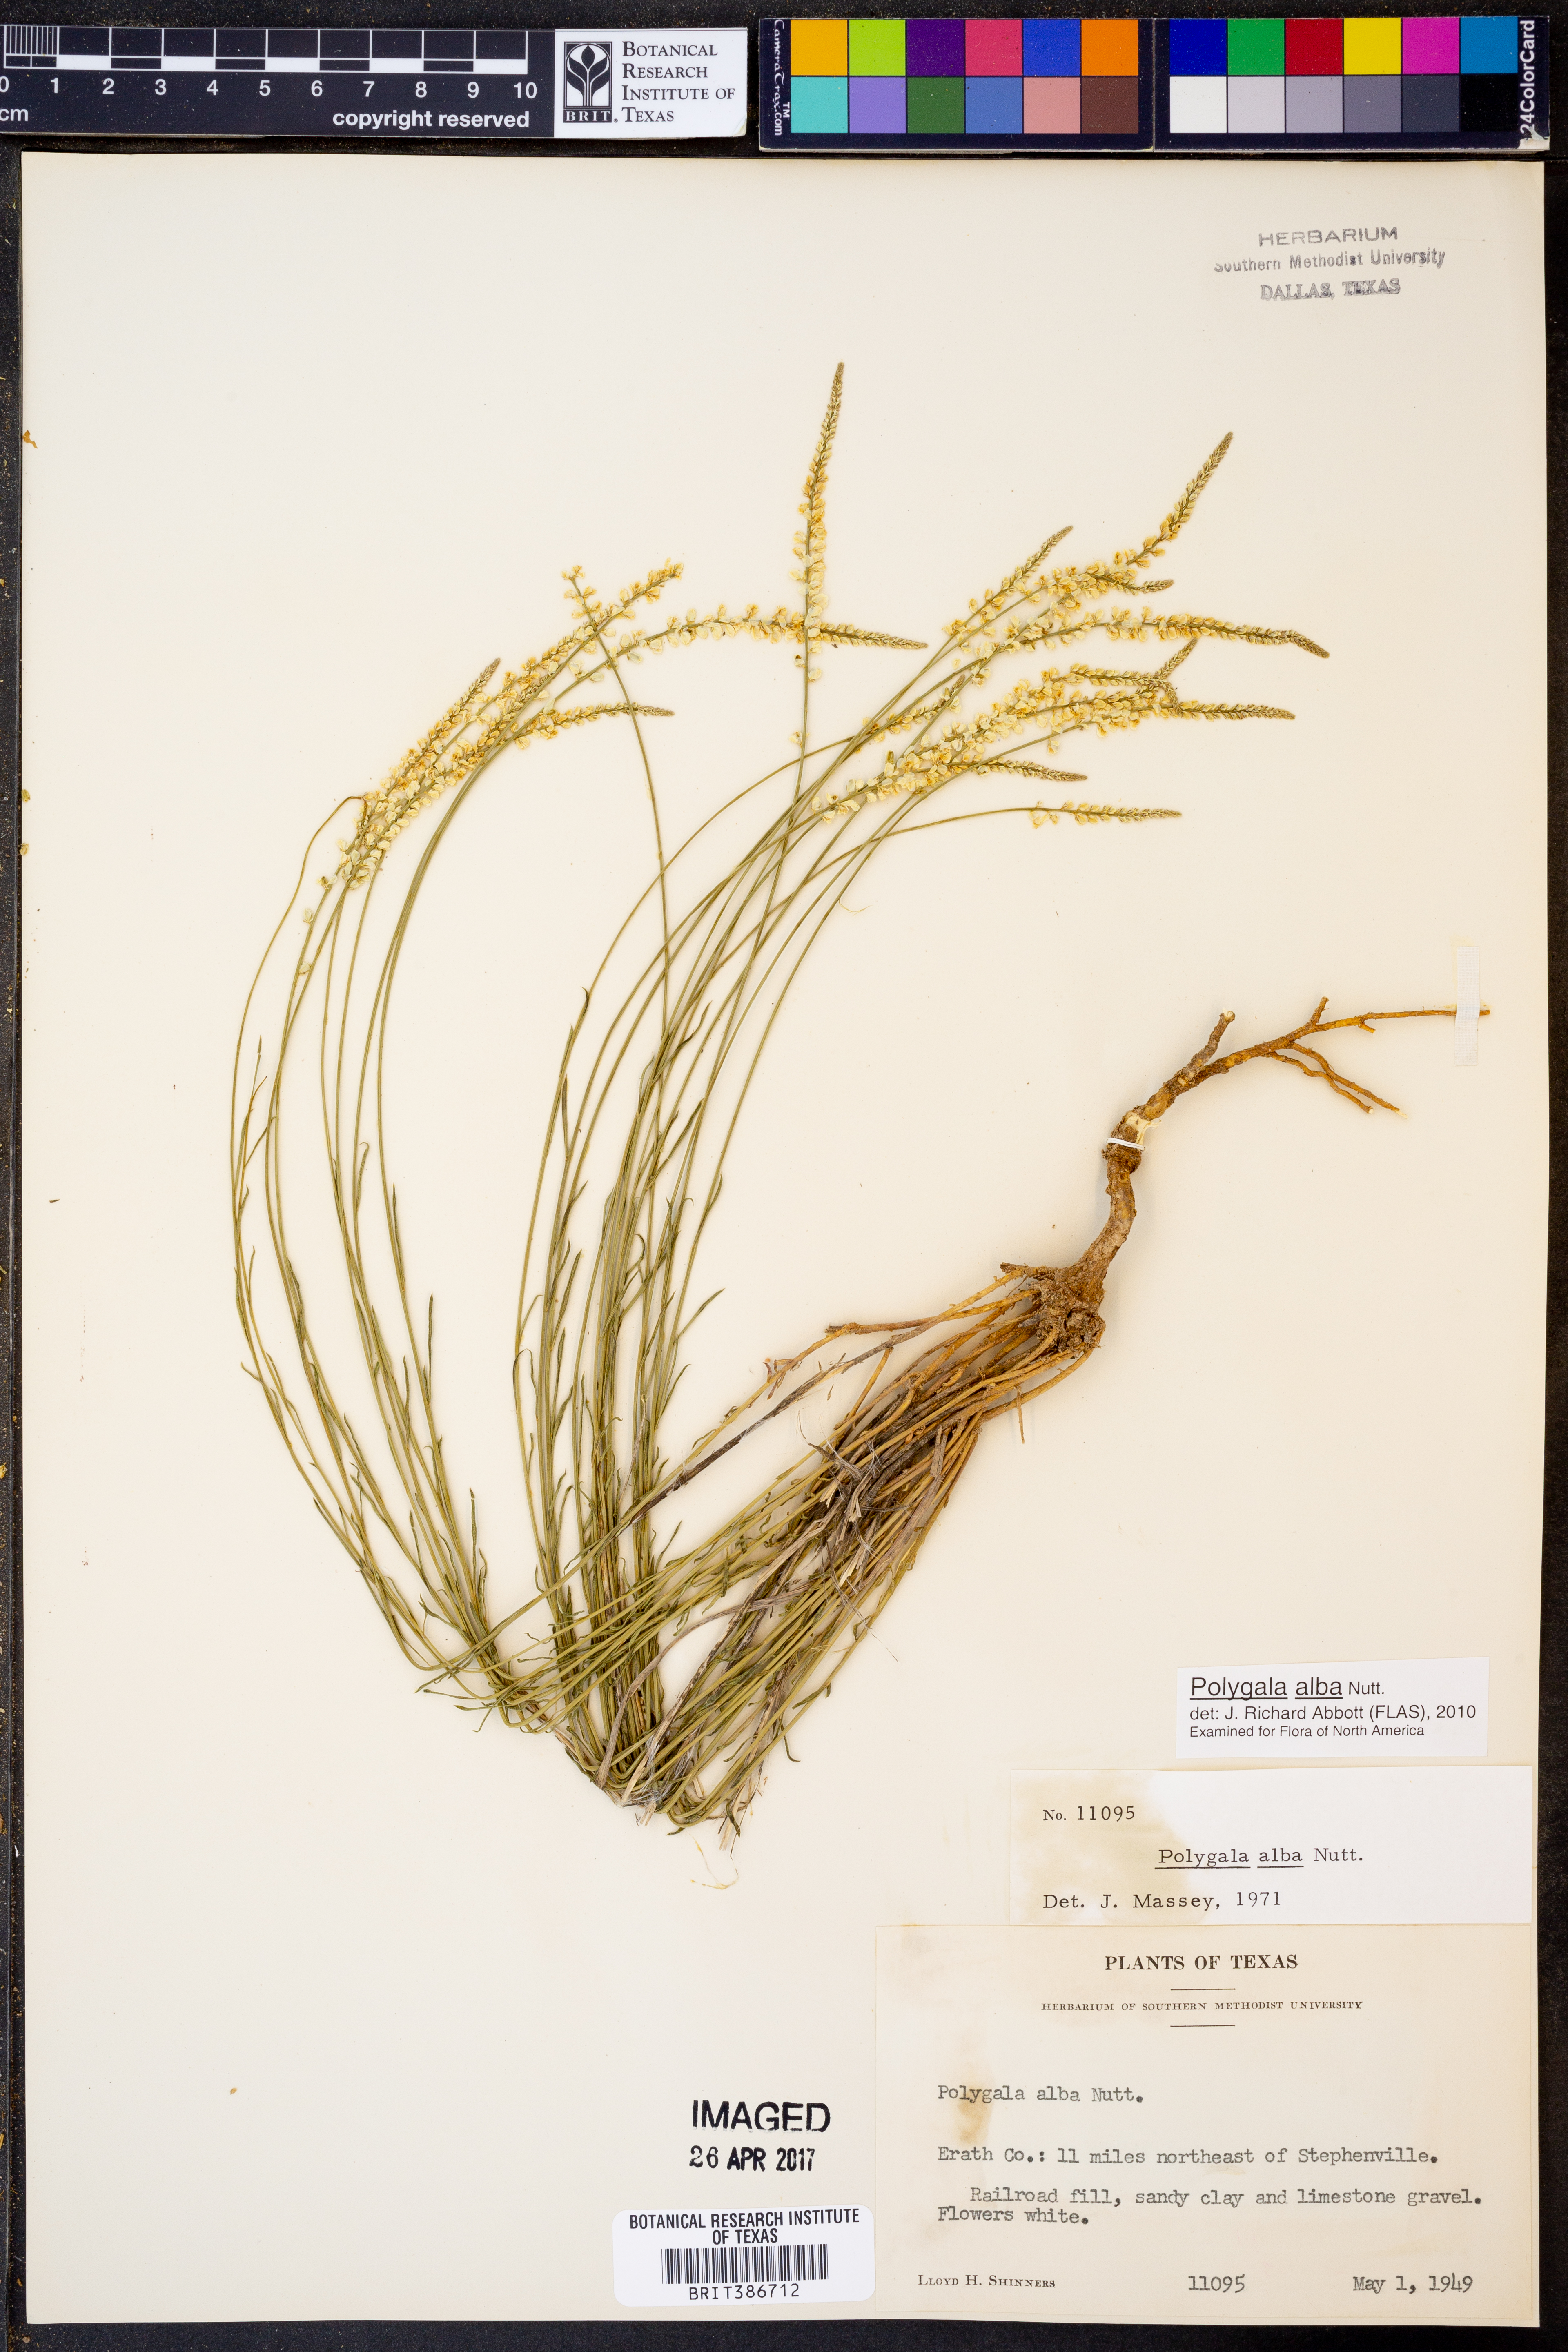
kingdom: Plantae
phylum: Tracheophyta
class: Magnoliopsida
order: Fabales
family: Polygalaceae
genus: Polygala
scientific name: Polygala alba
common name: White milkwort
